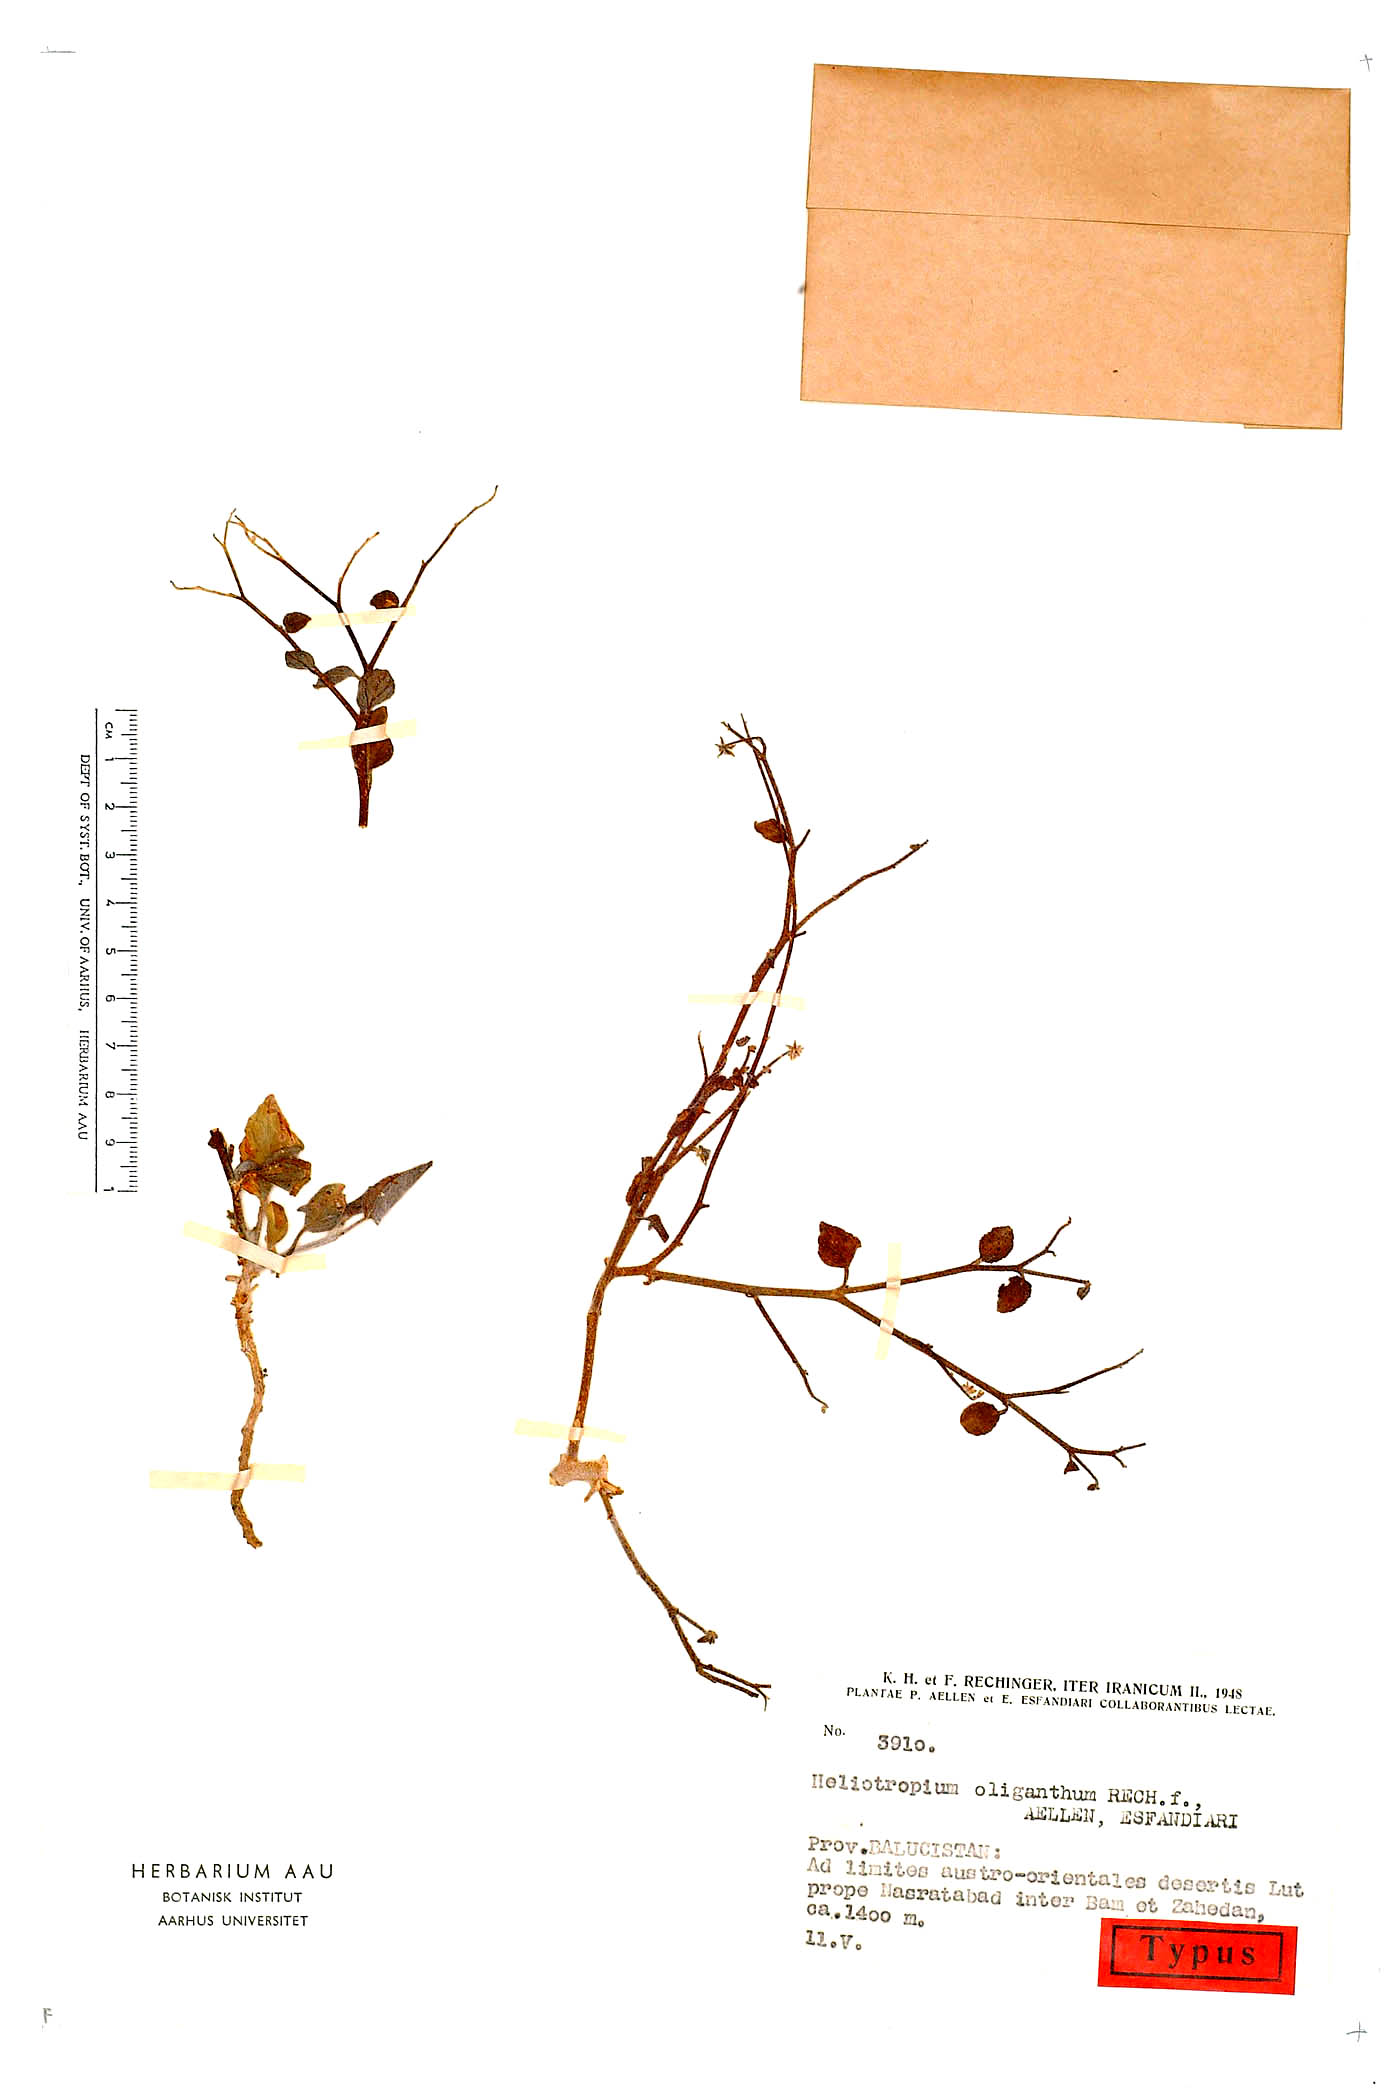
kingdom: Plantae
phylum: Tracheophyta
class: Magnoliopsida
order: Boraginales
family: Heliotropiaceae
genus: Heliotropium
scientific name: Heliotropium oliganthum
